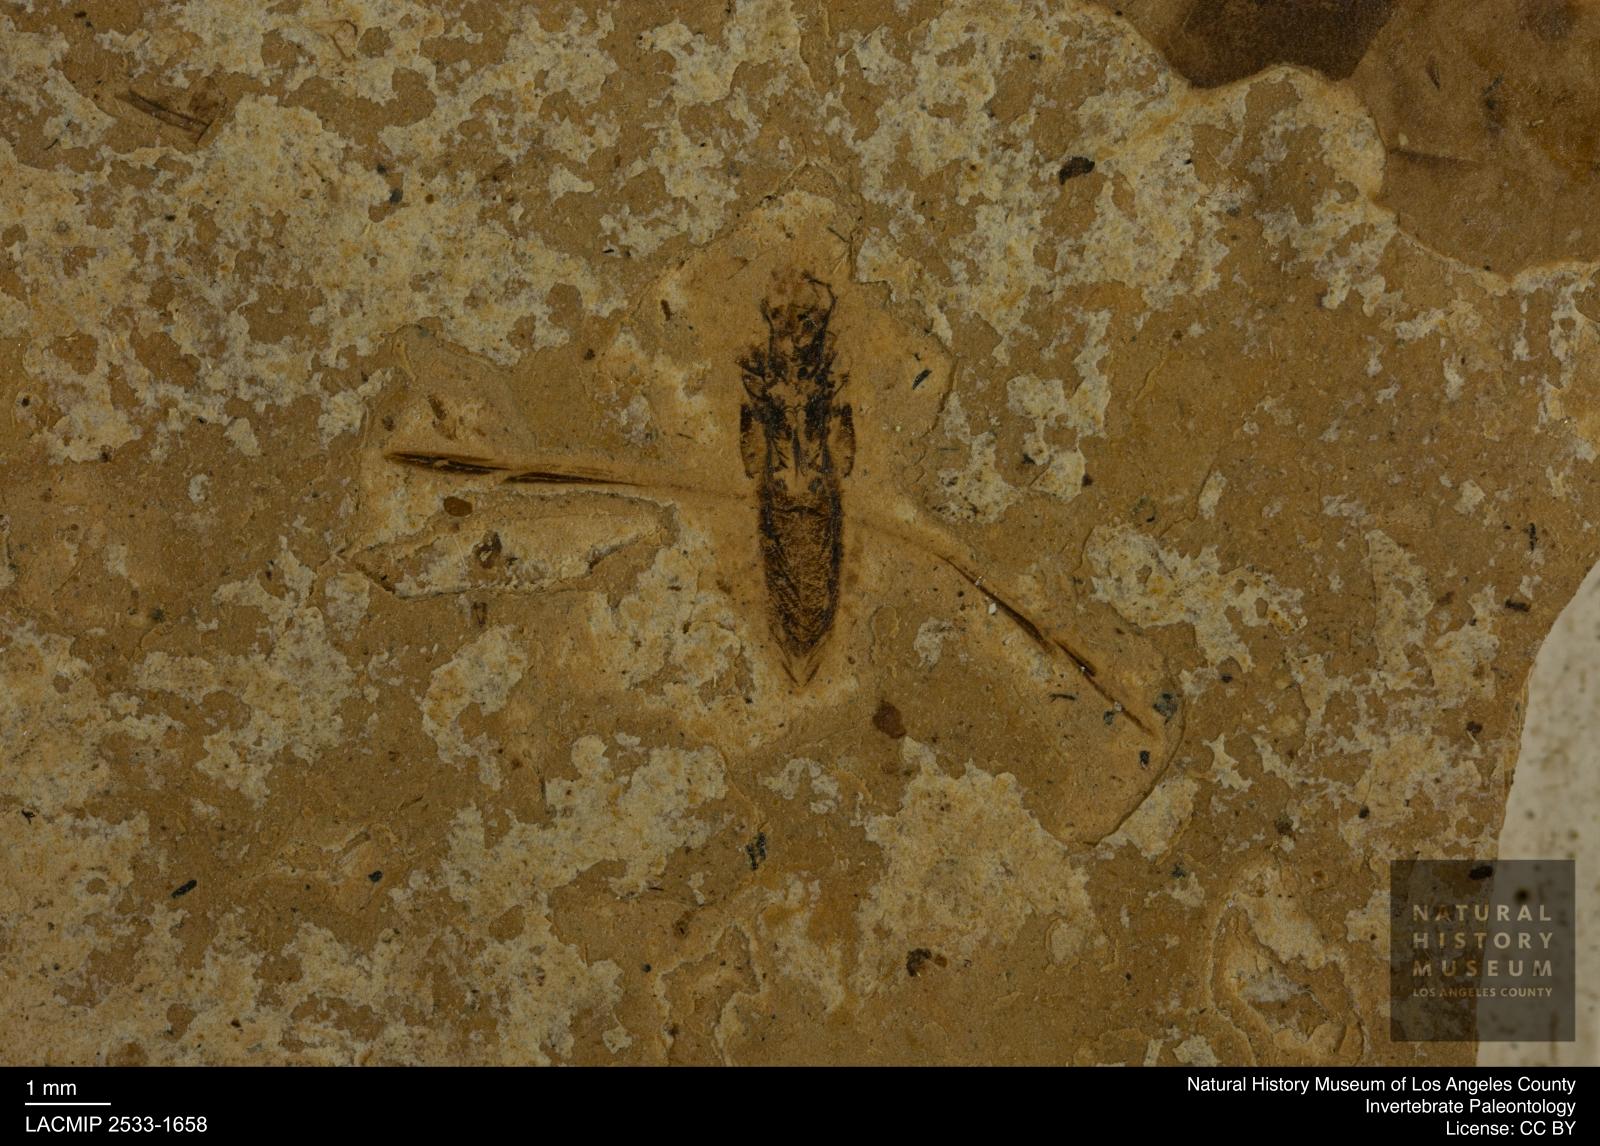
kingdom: Animalia
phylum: Arthropoda
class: Insecta
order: Hemiptera
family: Notonectidae
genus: Notonecta
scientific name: Notonecta
